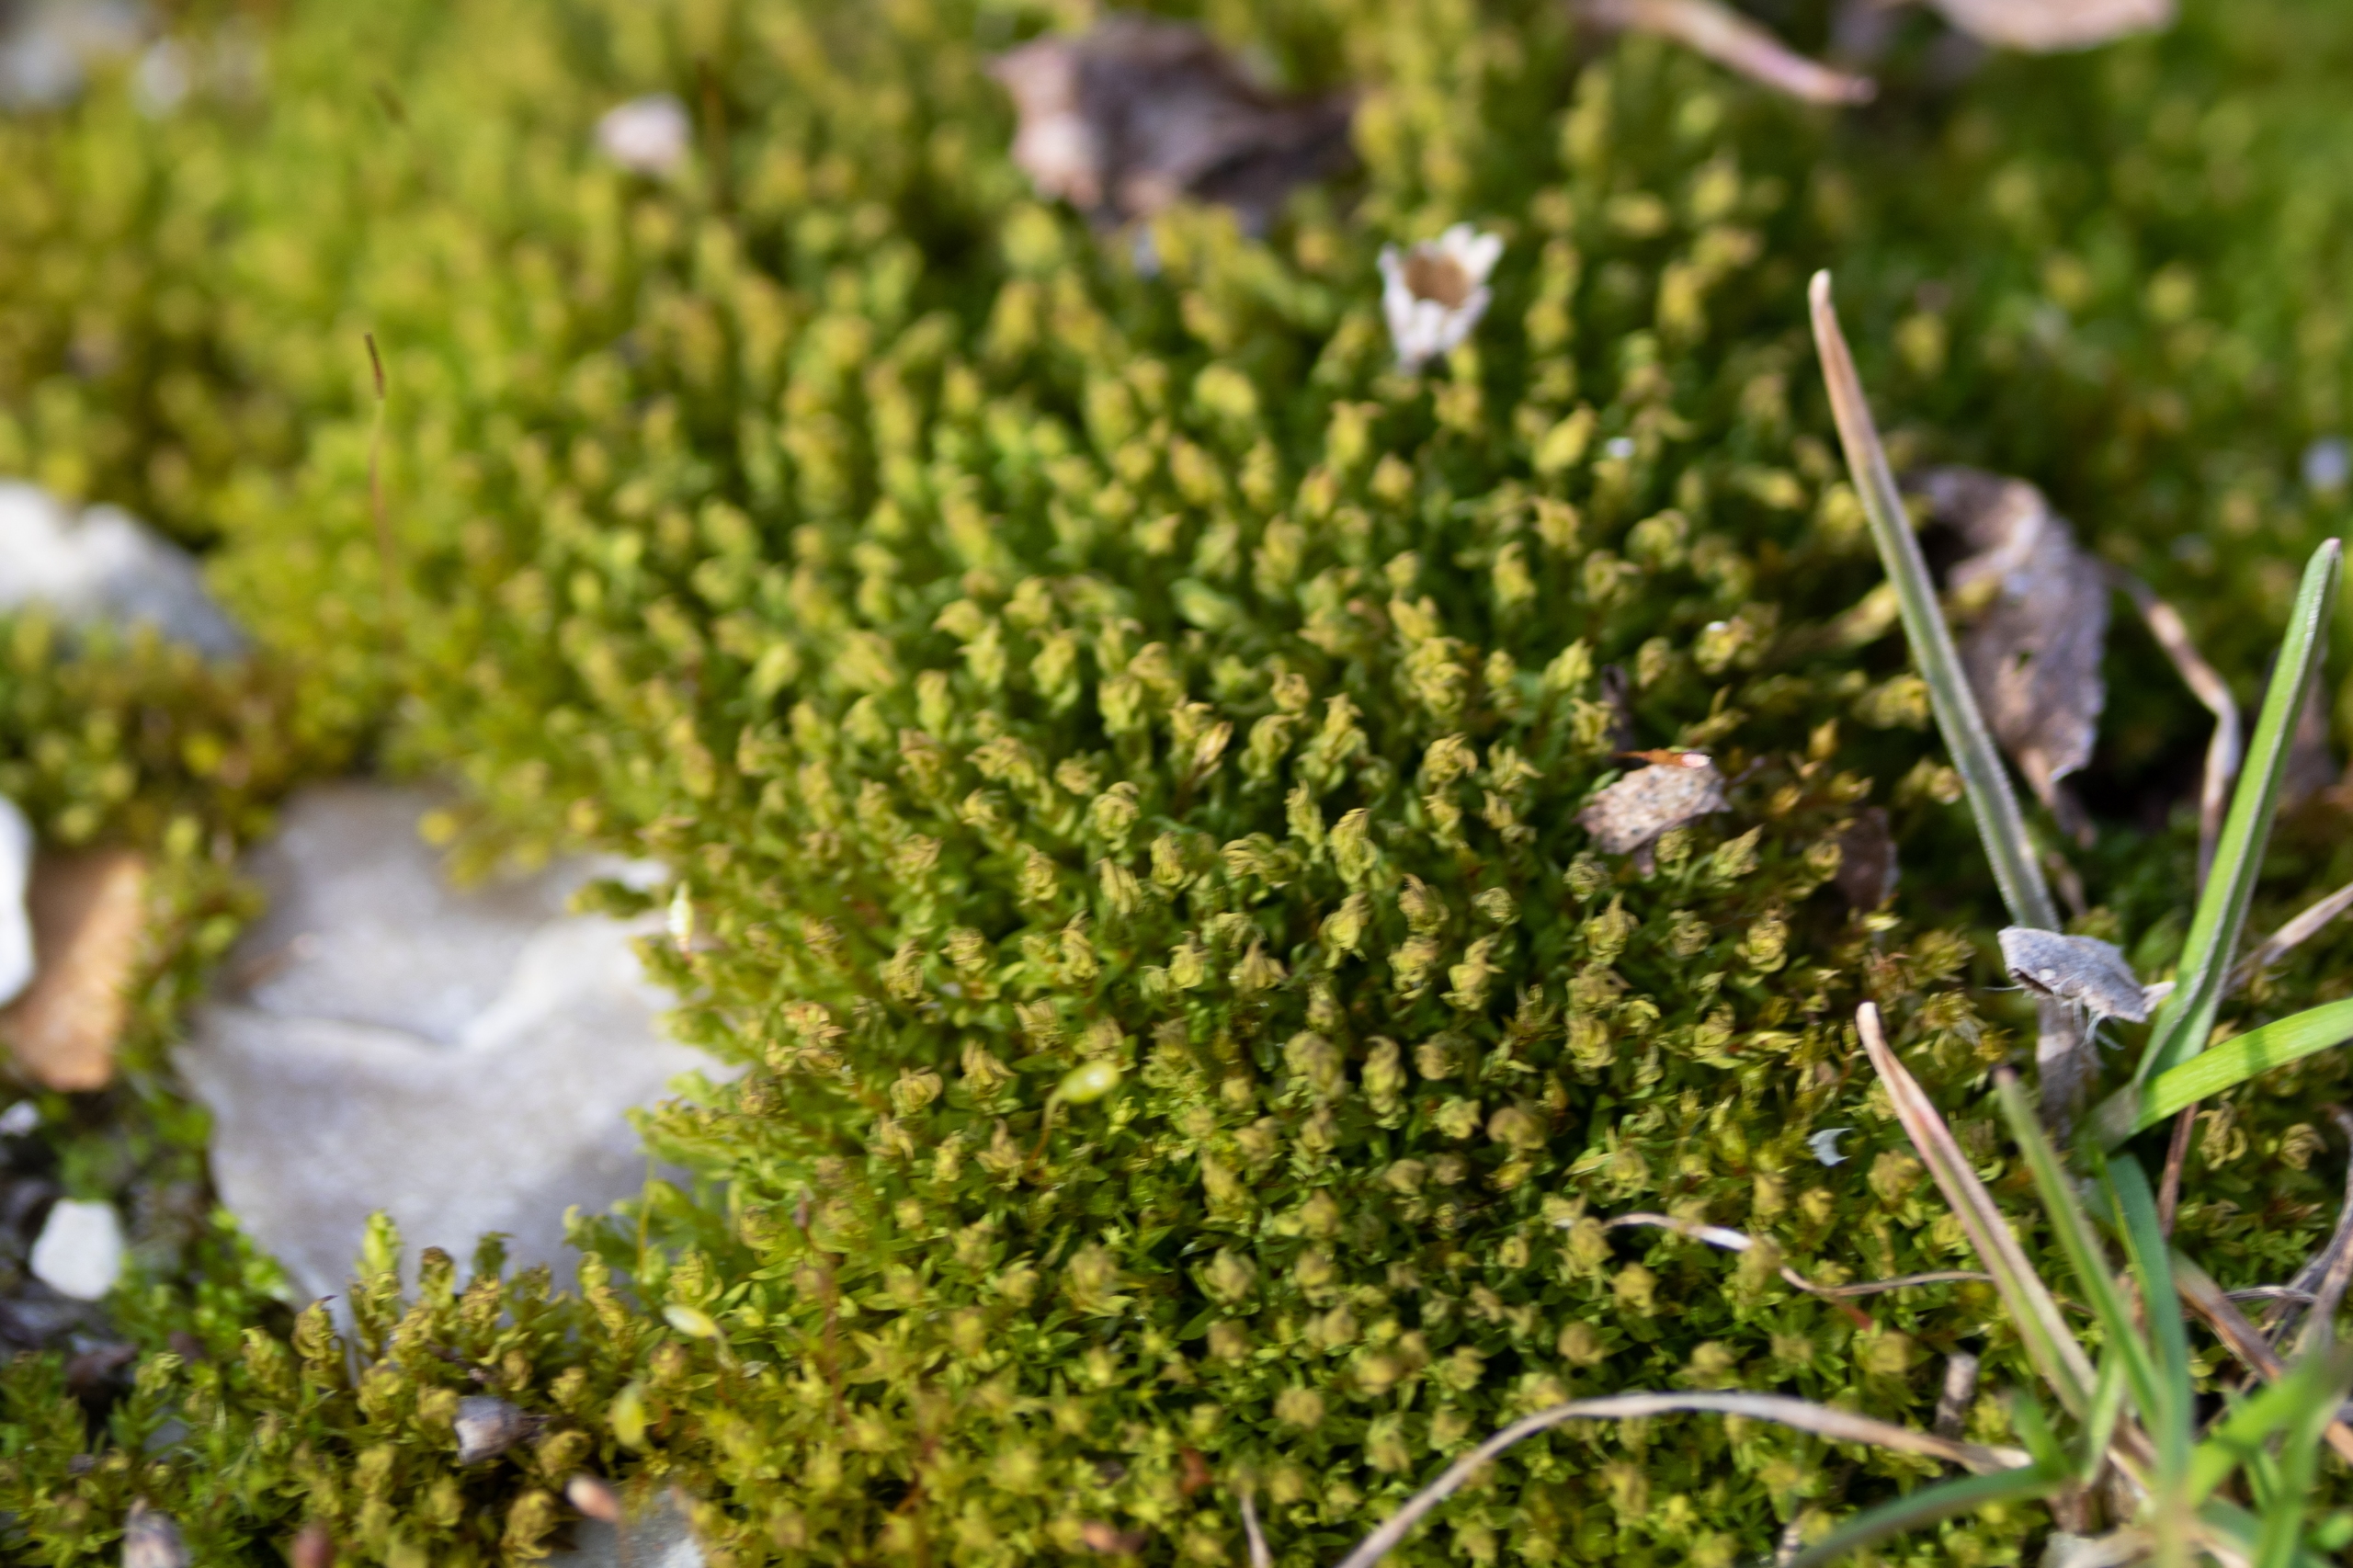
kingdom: Plantae
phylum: Bryophyta
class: Bryopsida
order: Pottiales
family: Pottiaceae
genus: Barbula
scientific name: Barbula unguiculata
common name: Almindelig skægtand
